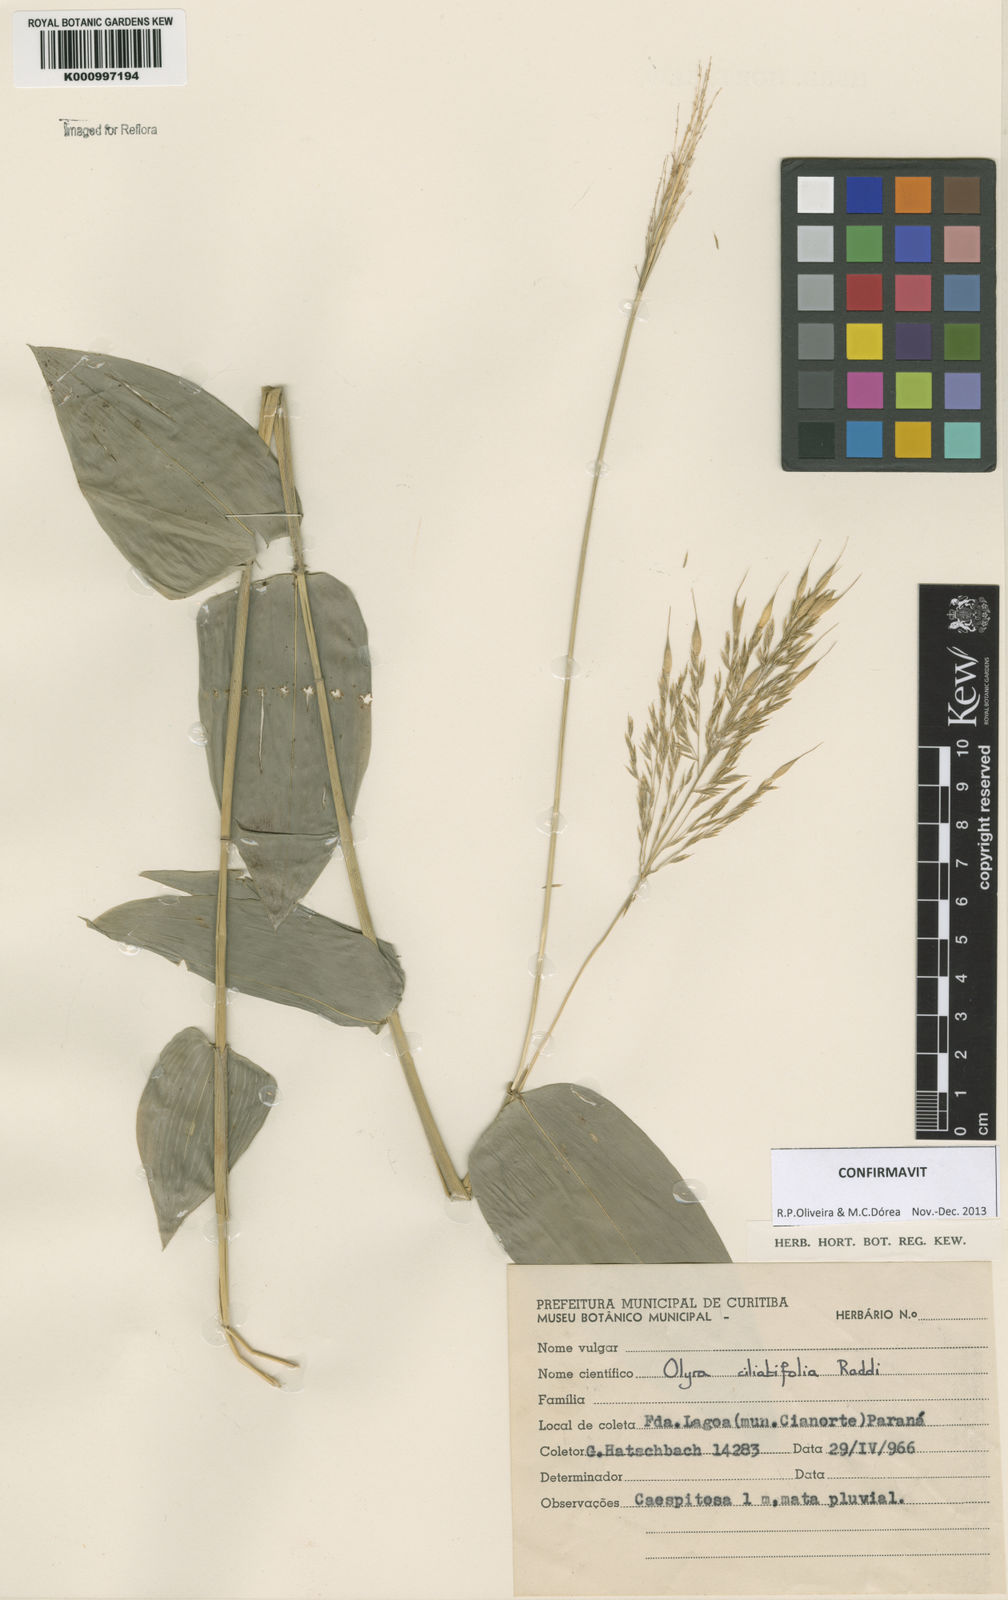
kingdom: Plantae
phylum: Tracheophyta
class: Liliopsida
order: Poales
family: Poaceae
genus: Olyra
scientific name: Olyra ciliatifolia
